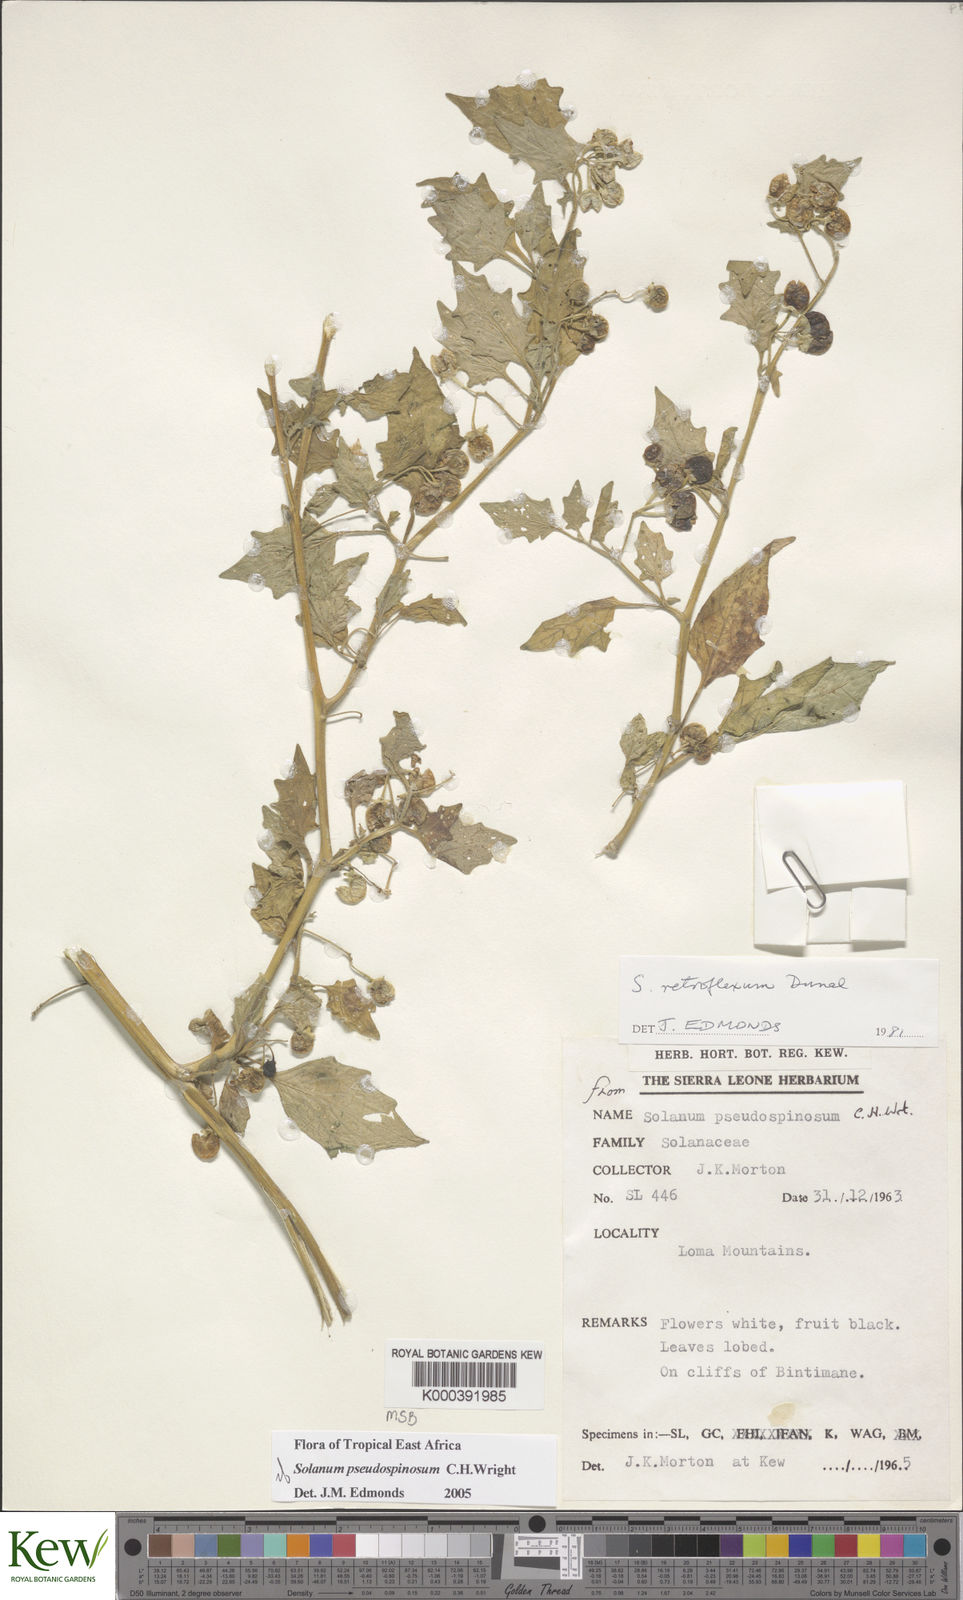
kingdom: Plantae
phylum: Tracheophyta
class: Magnoliopsida
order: Solanales
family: Solanaceae
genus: Solanum
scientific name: Solanum pseudospinosum
